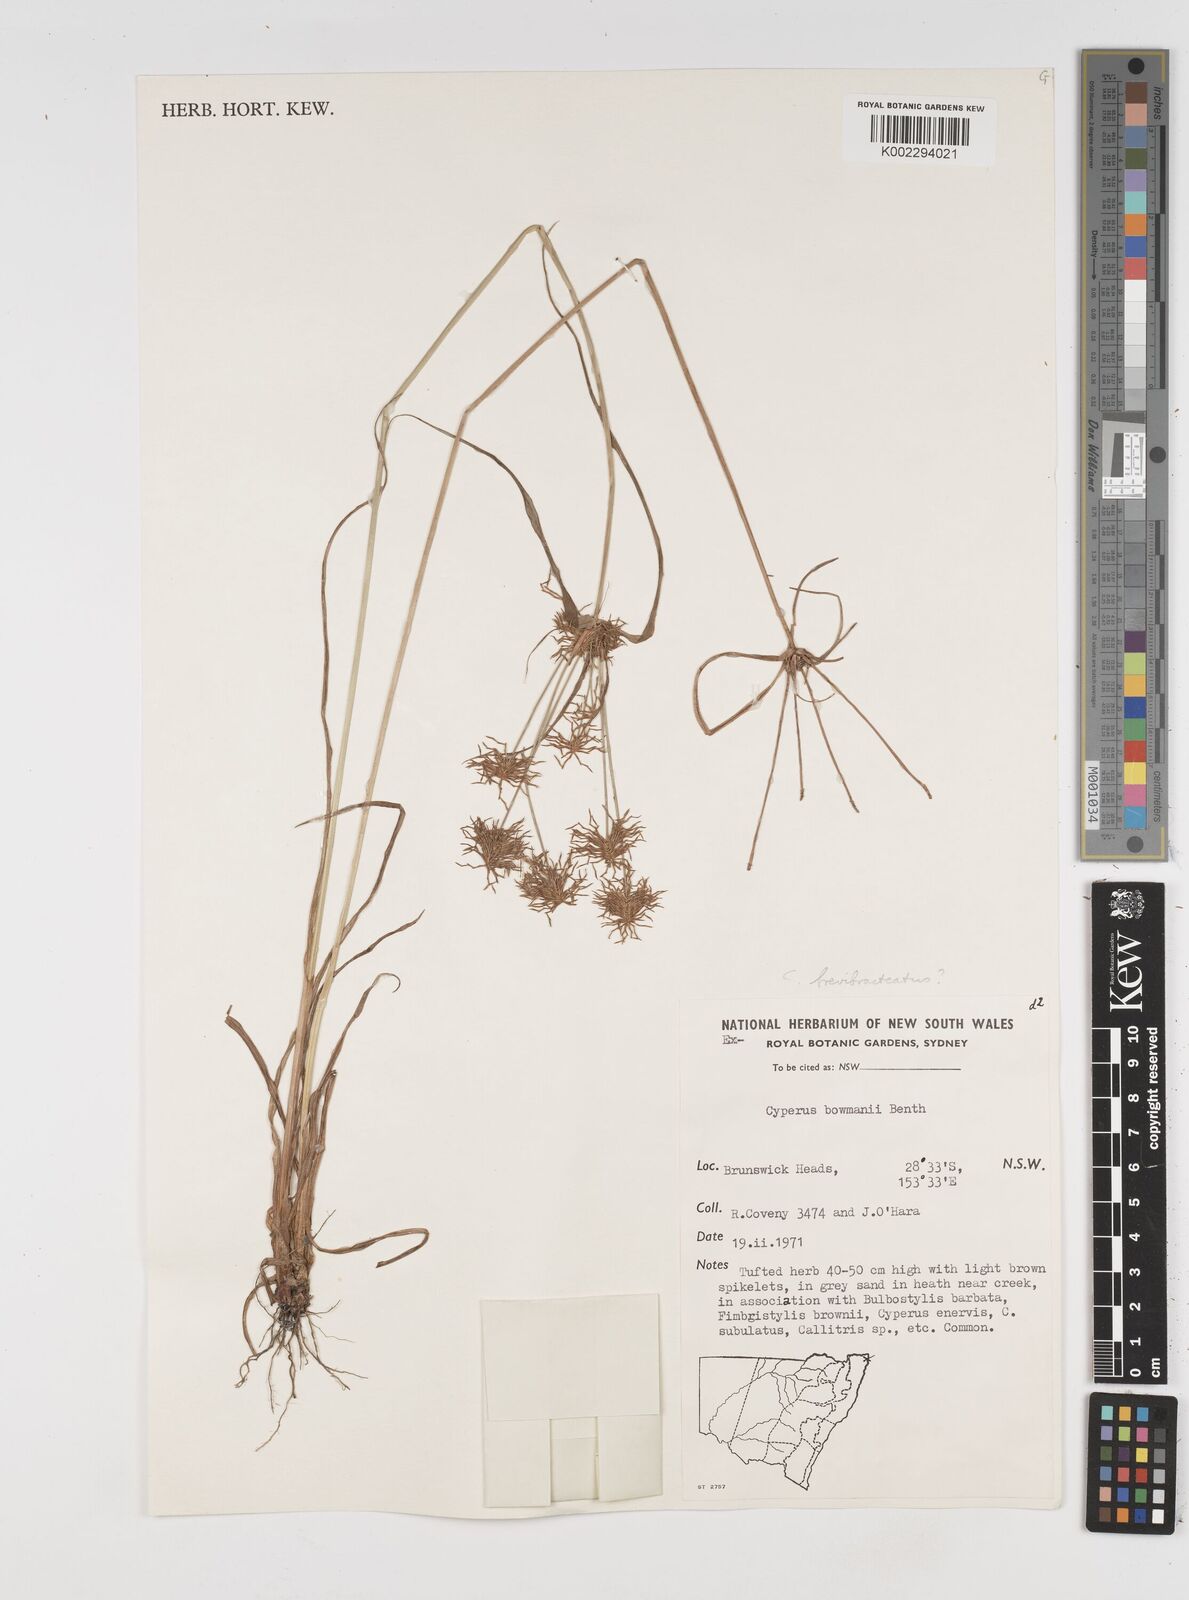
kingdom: Plantae
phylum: Tracheophyta
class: Liliopsida
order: Poales
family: Cyperaceae
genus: Cyperus
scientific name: Cyperus dietrichiae
